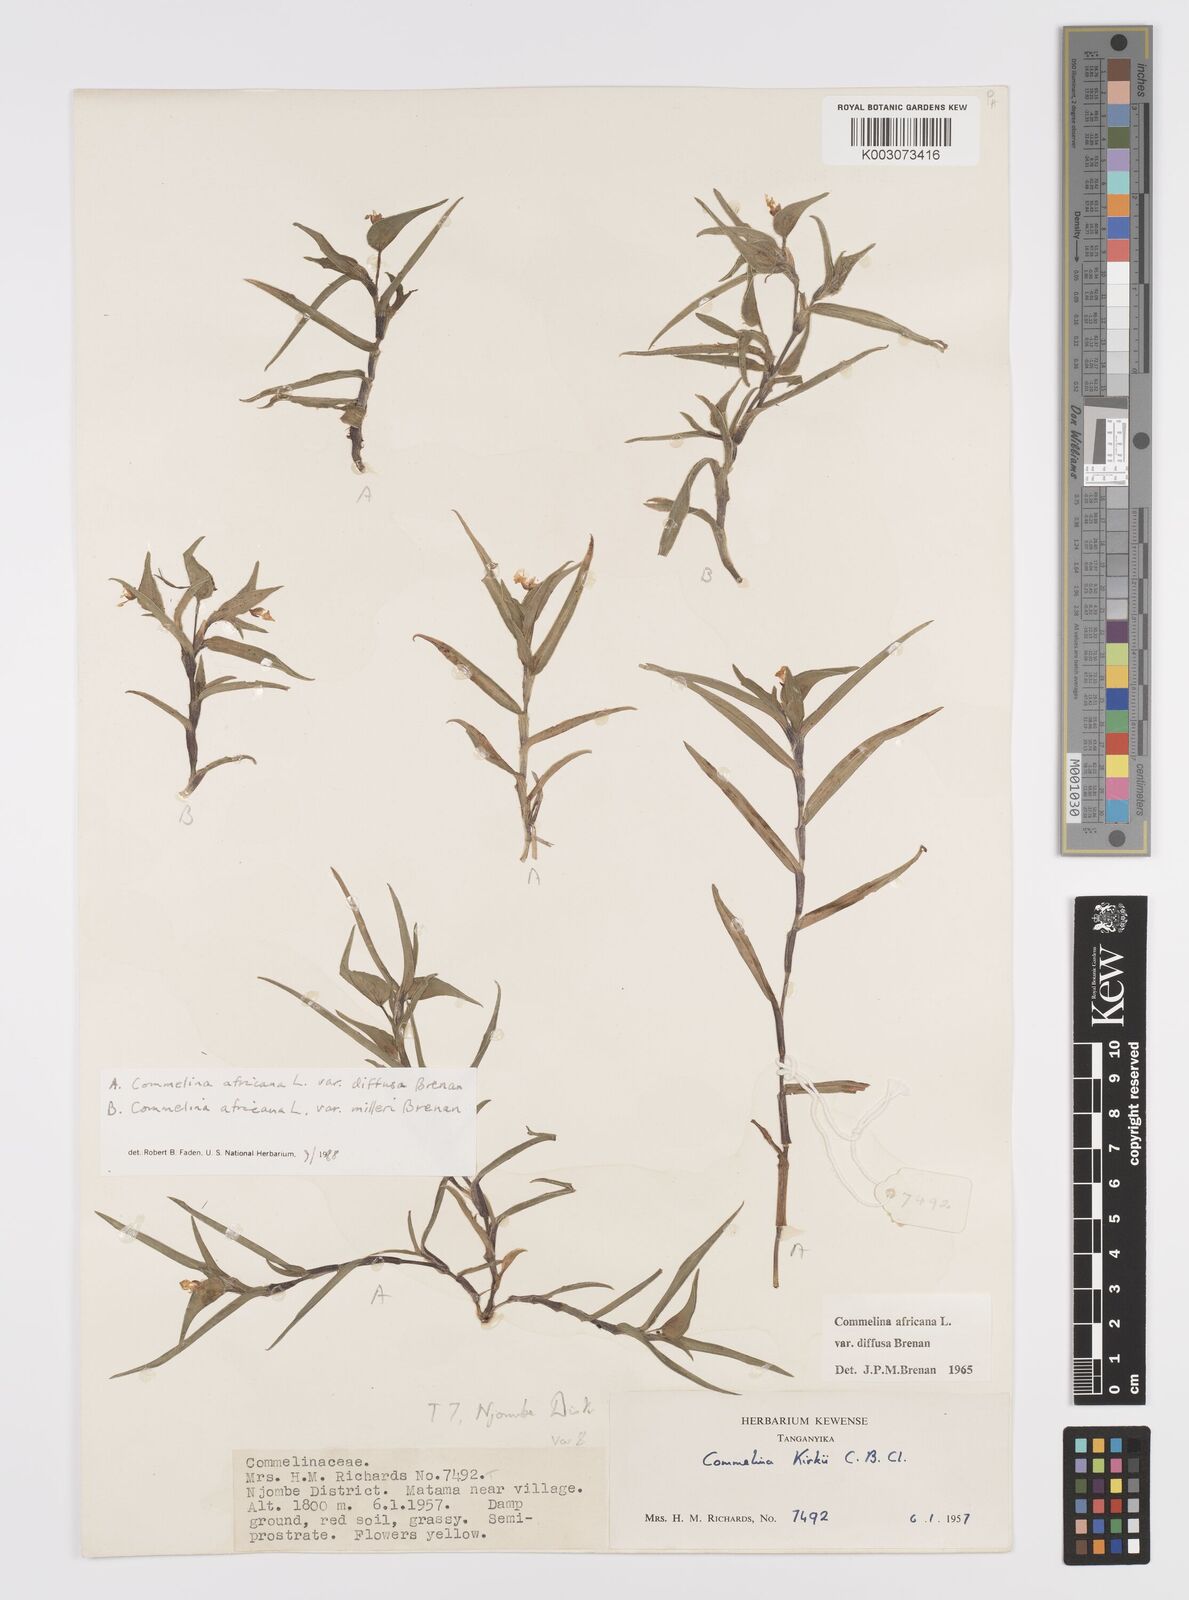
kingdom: Plantae
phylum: Tracheophyta
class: Liliopsida
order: Commelinales
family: Commelinaceae
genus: Commelina
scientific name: Commelina africana
